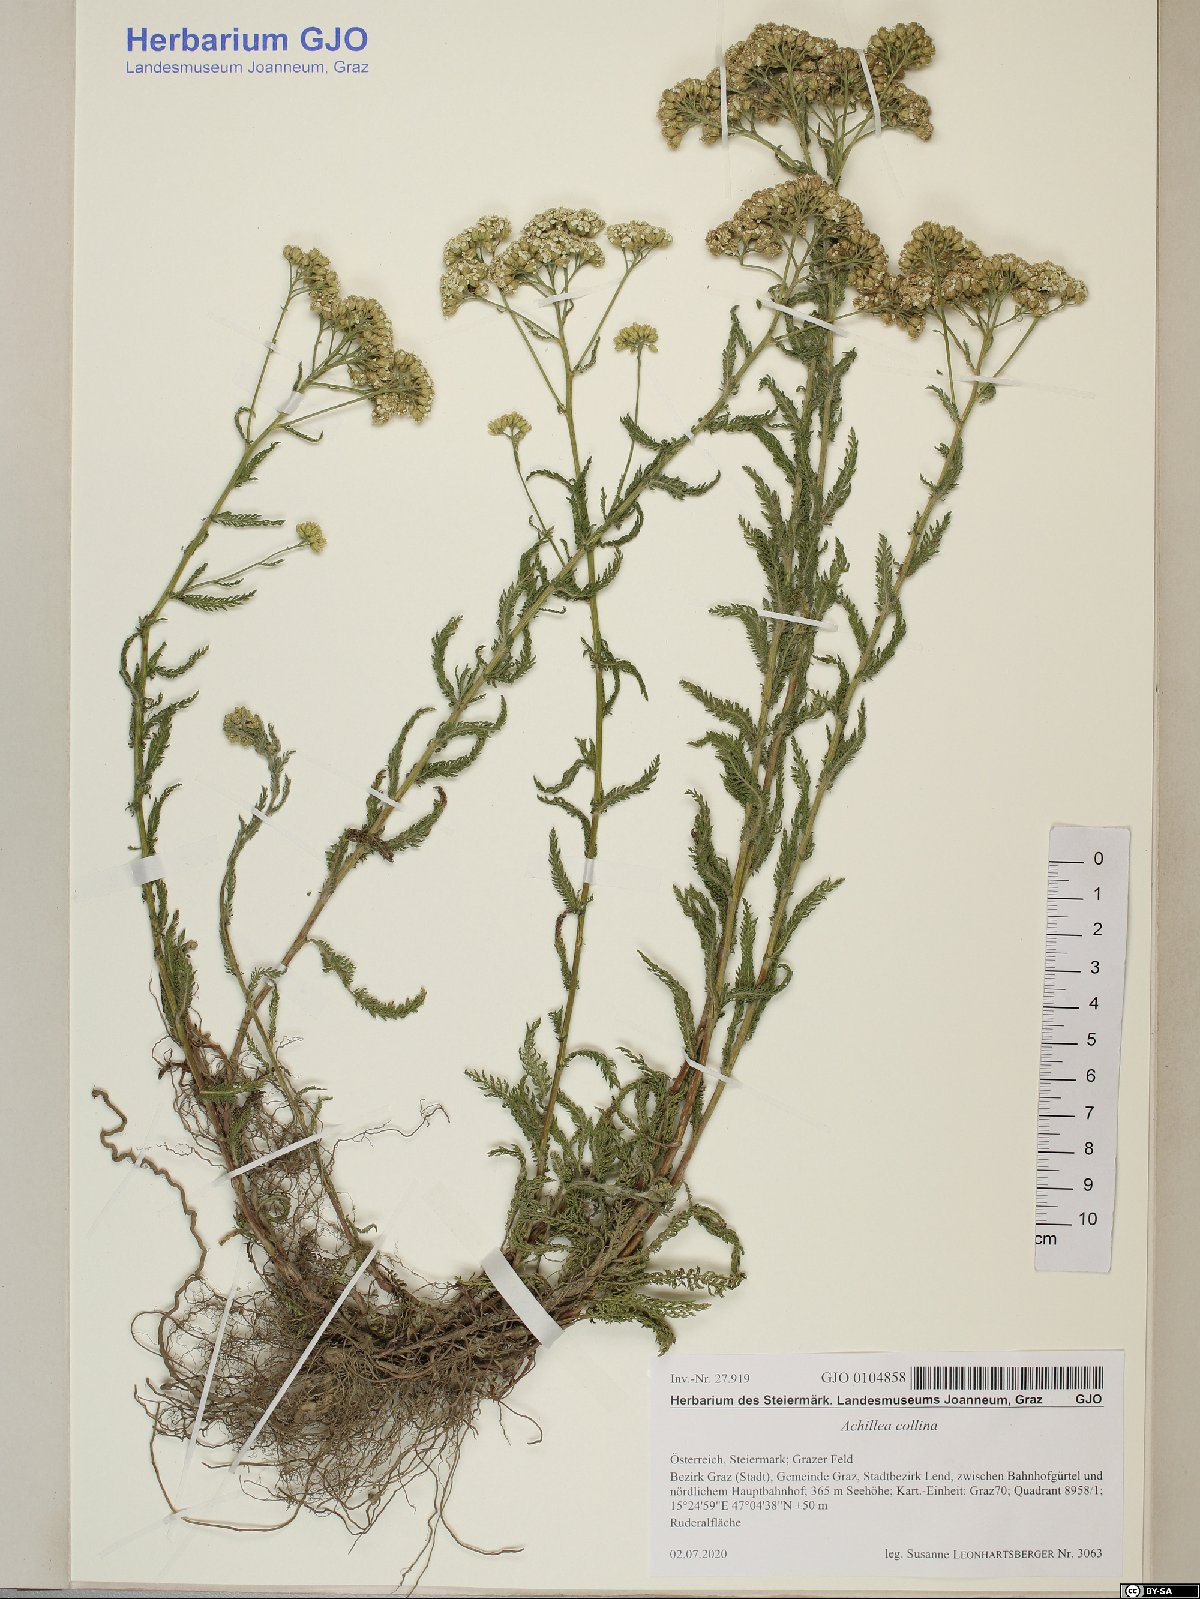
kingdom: Plantae
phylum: Tracheophyta
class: Magnoliopsida
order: Asterales
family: Asteraceae
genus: Achillea
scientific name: Achillea collina
